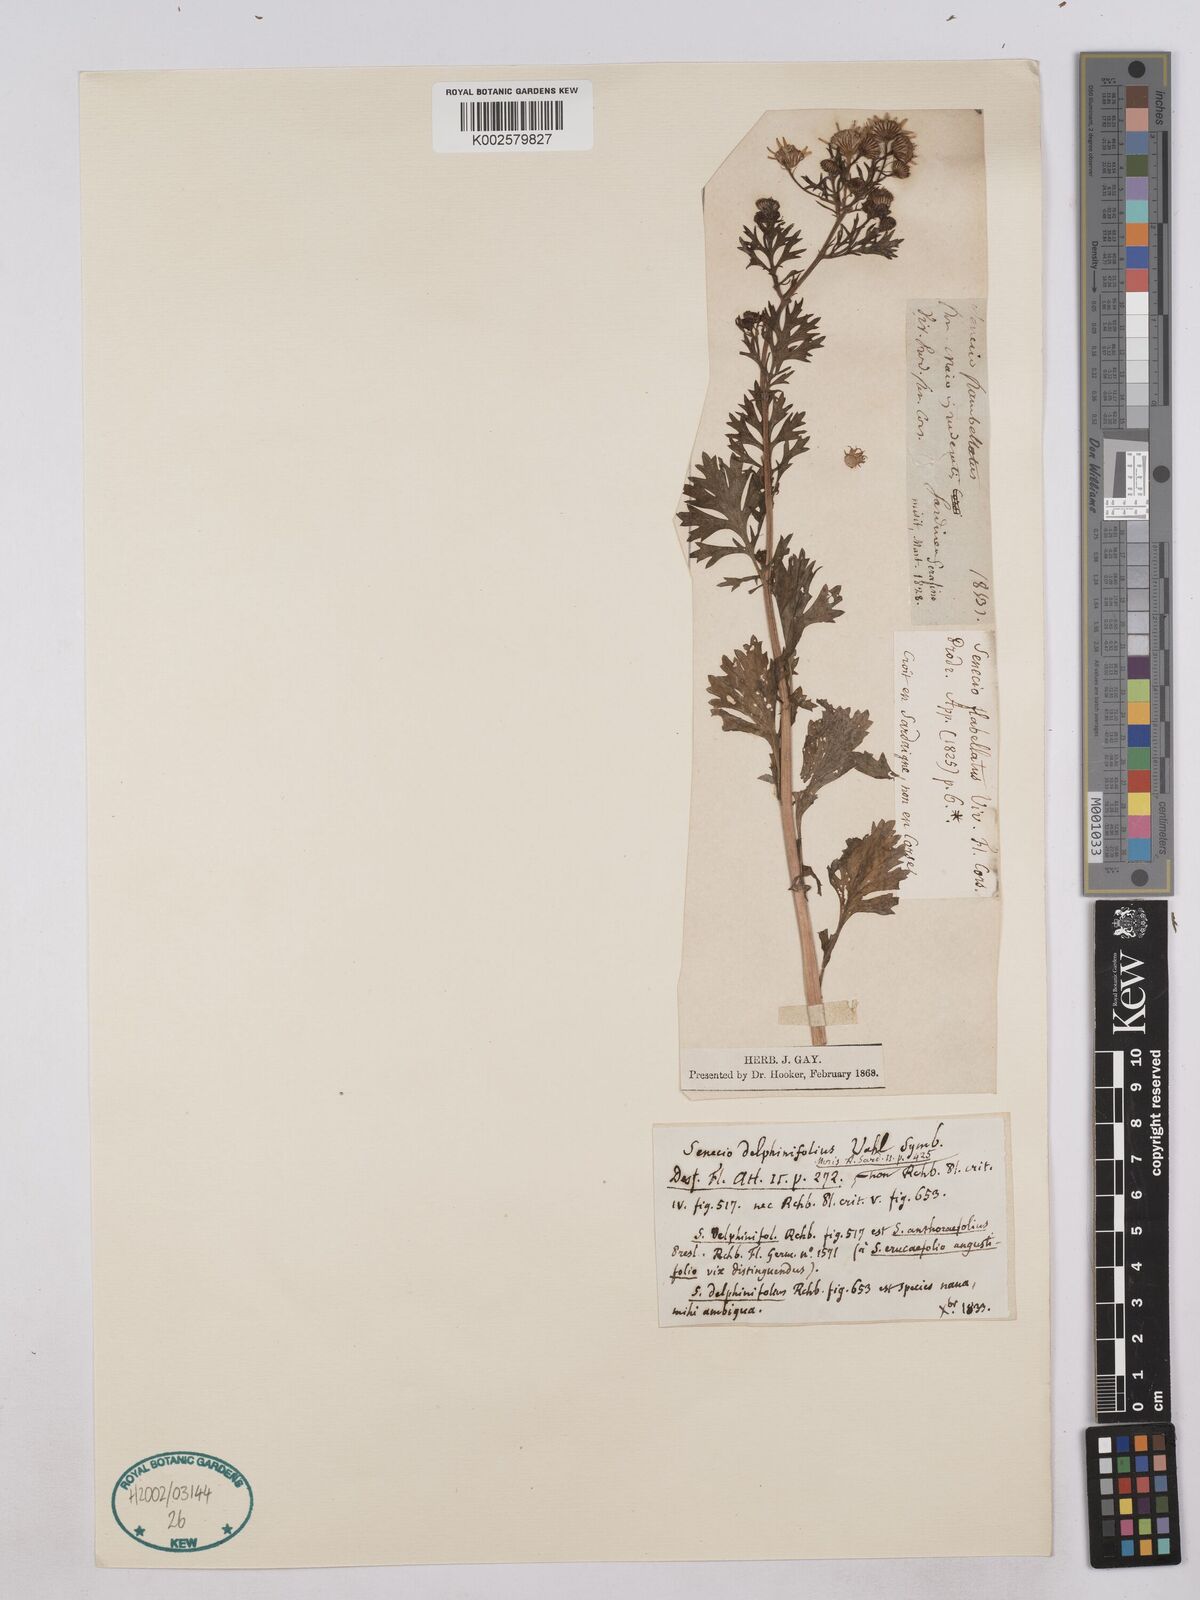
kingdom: Plantae
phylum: Tracheophyta
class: Magnoliopsida
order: Asterales
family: Asteraceae
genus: Jacobaea
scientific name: Jacobaea erucifolia
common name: Hoary ragwort
